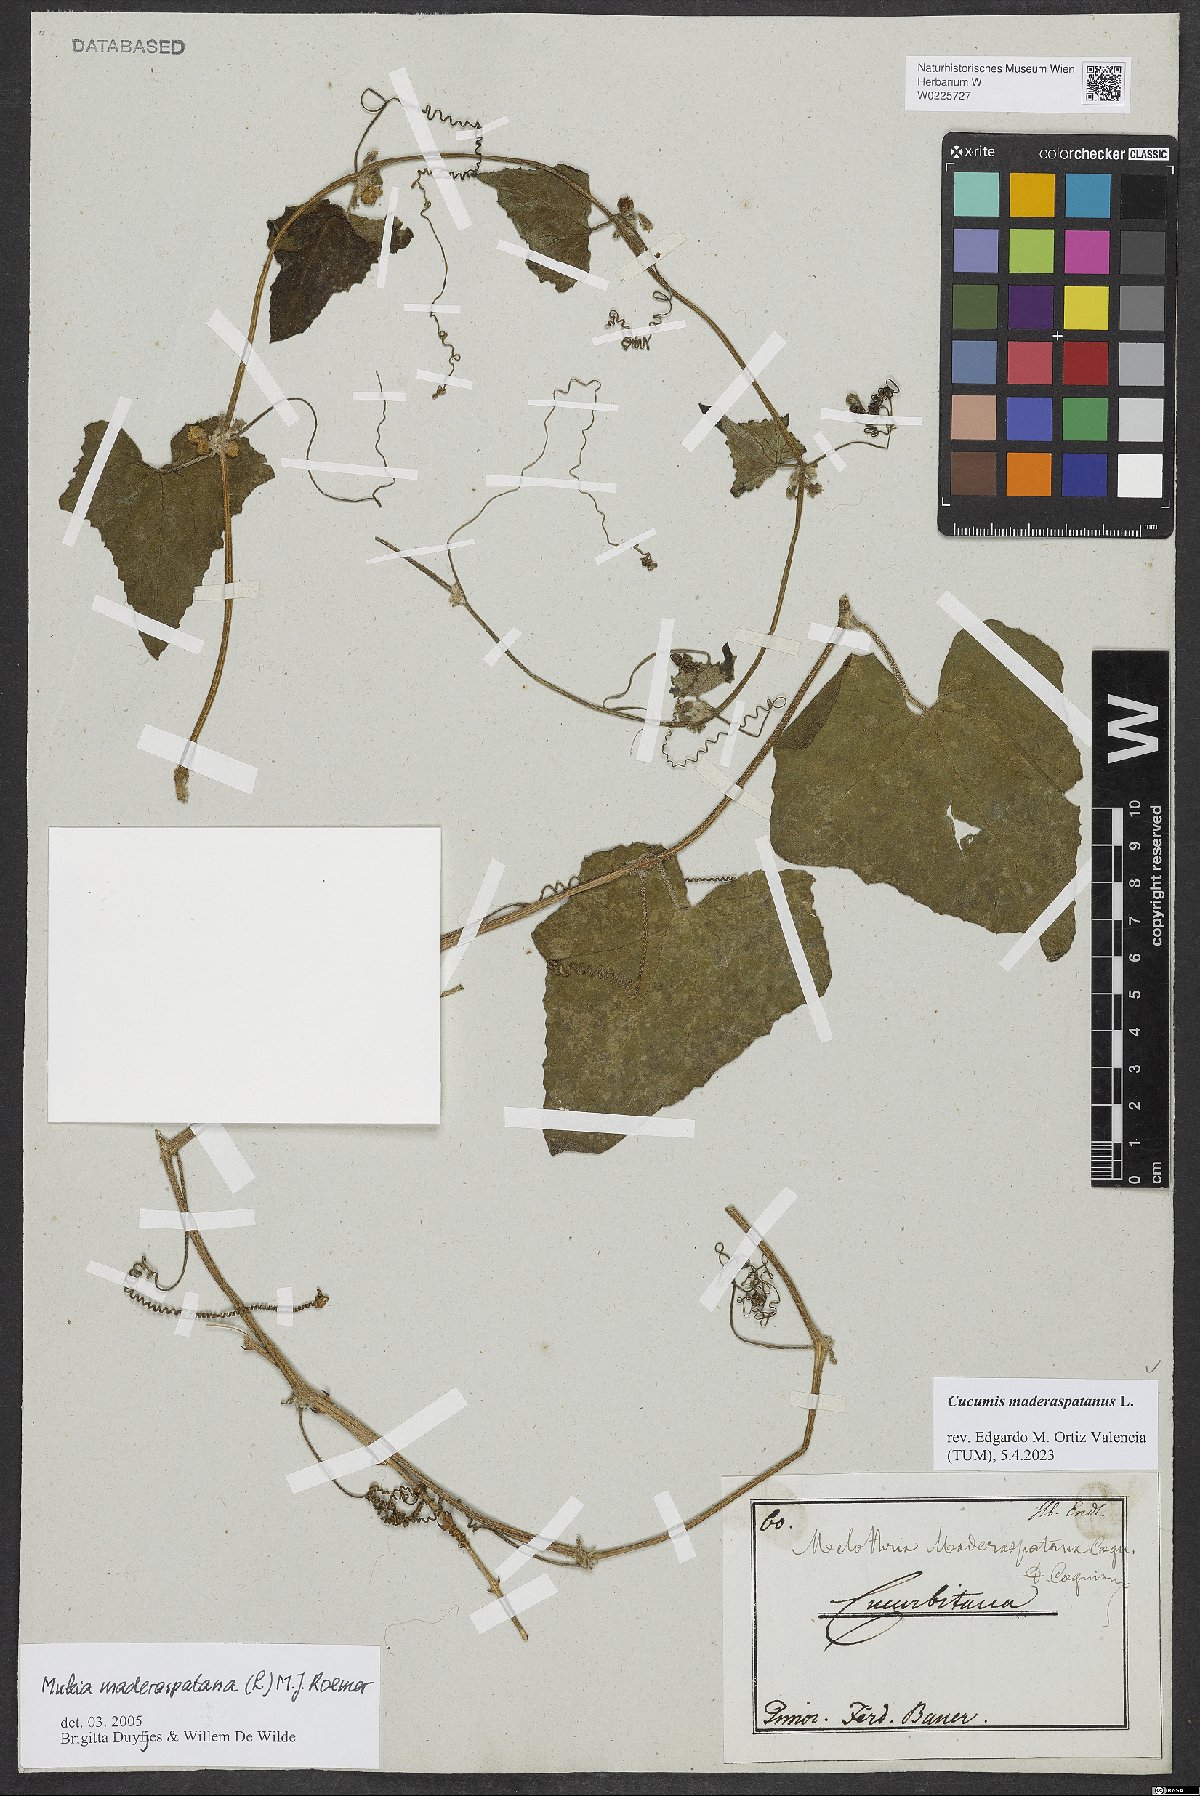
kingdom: Plantae
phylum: Tracheophyta
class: Magnoliopsida
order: Cucurbitales
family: Cucurbitaceae
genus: Cucumis
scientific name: Cucumis maderaspatanus
